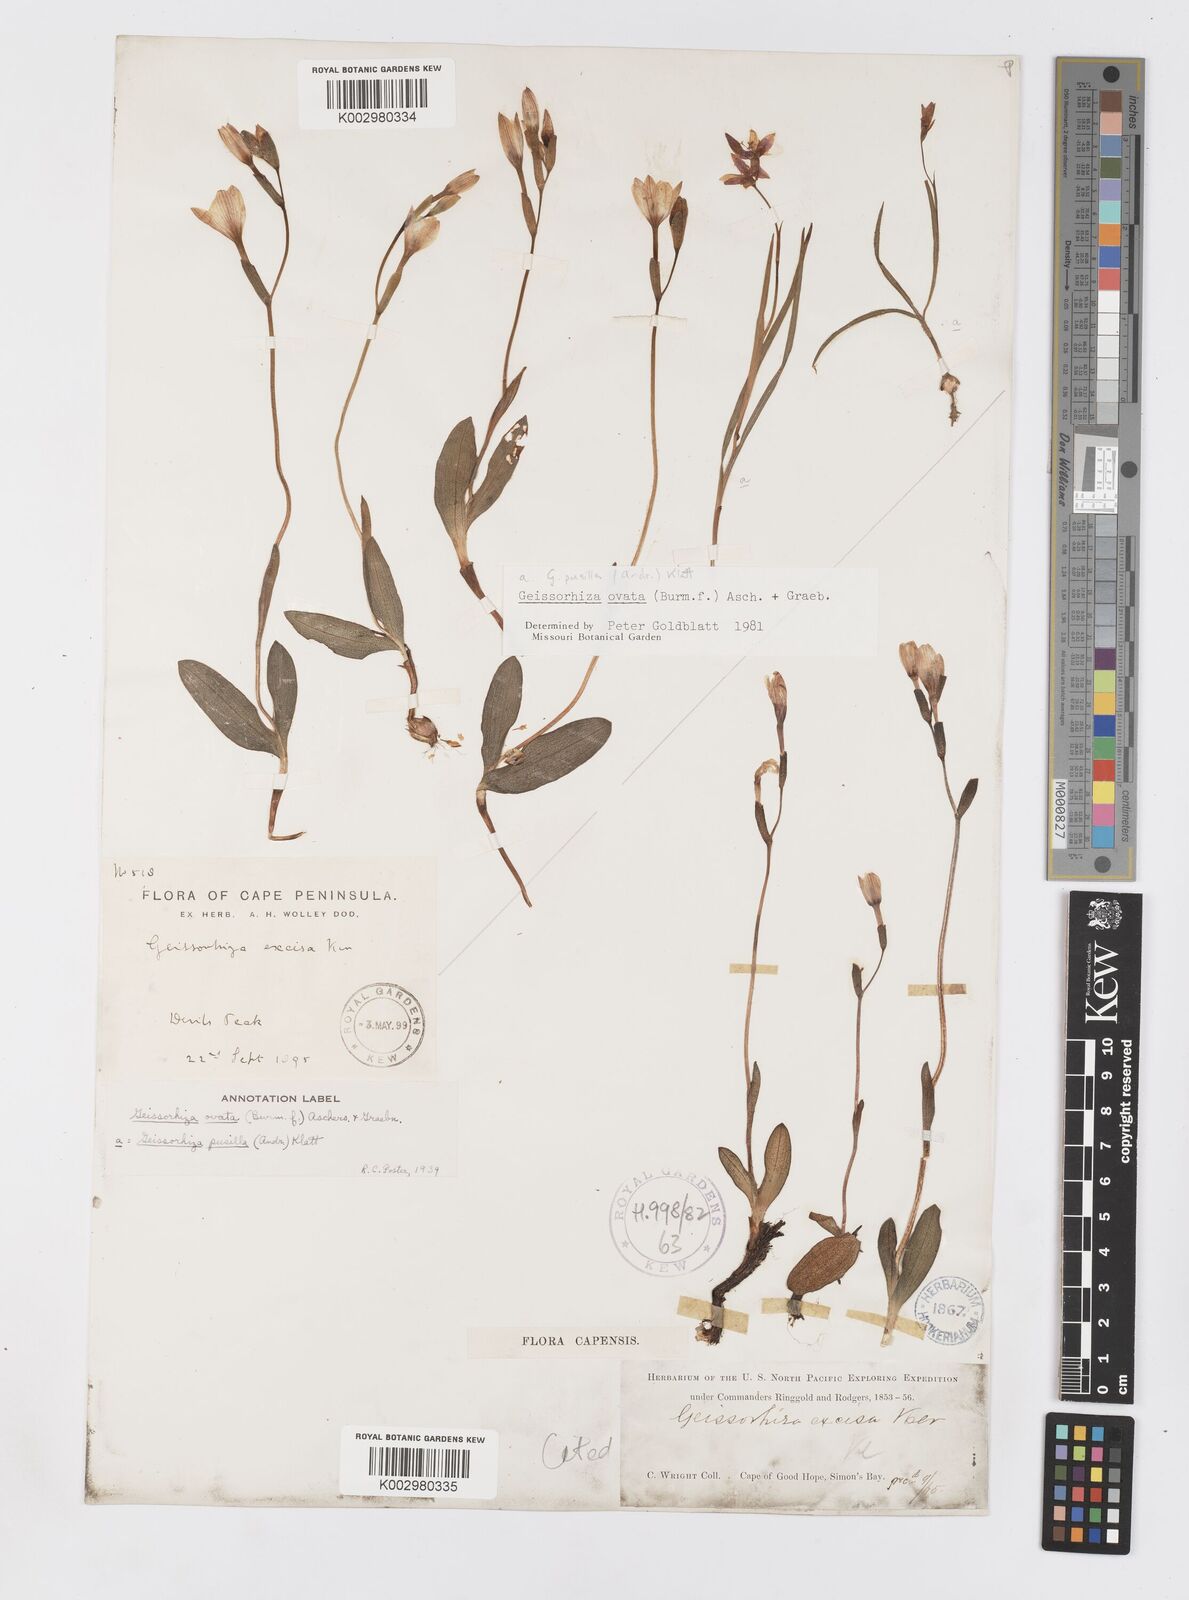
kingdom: Plantae
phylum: Tracheophyta
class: Liliopsida
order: Asparagales
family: Iridaceae
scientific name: Iridaceae
